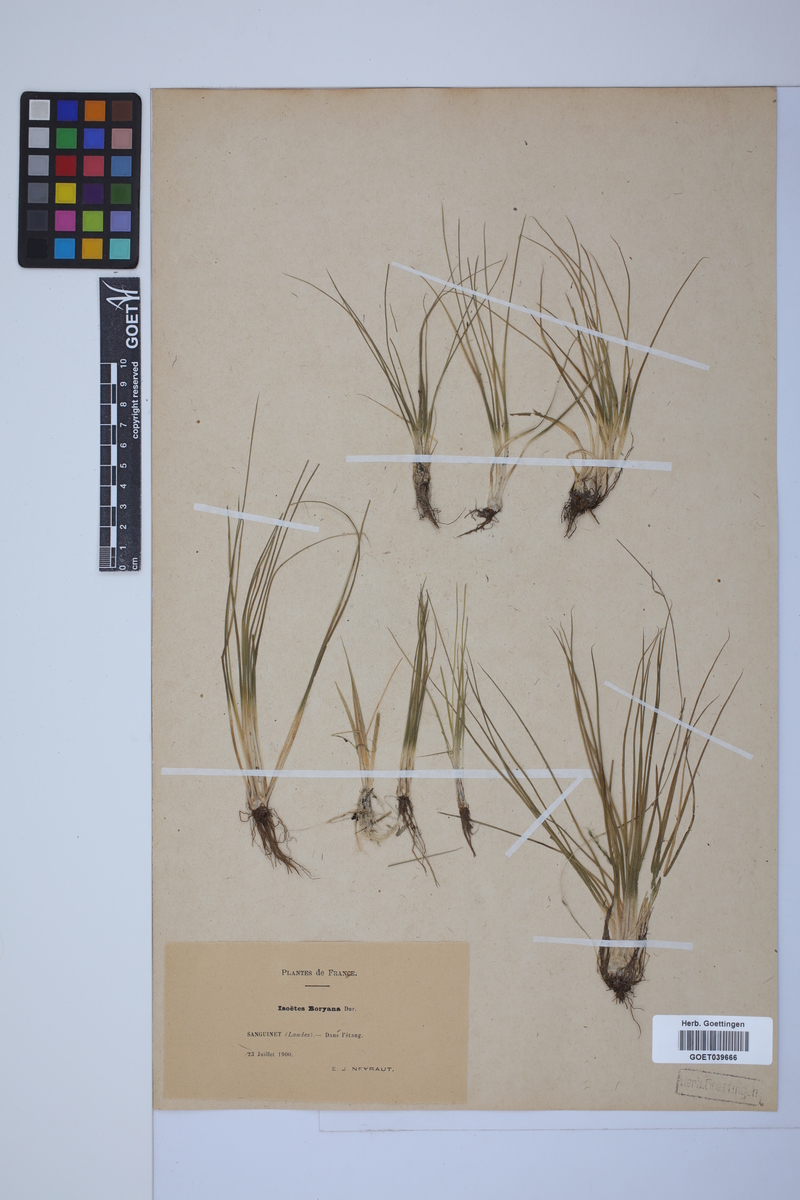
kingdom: Plantae
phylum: Tracheophyta
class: Lycopodiopsida
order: Isoetales
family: Isoetaceae
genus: Isoetes
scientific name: Isoetes boryana
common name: Gascoyne quillwort
